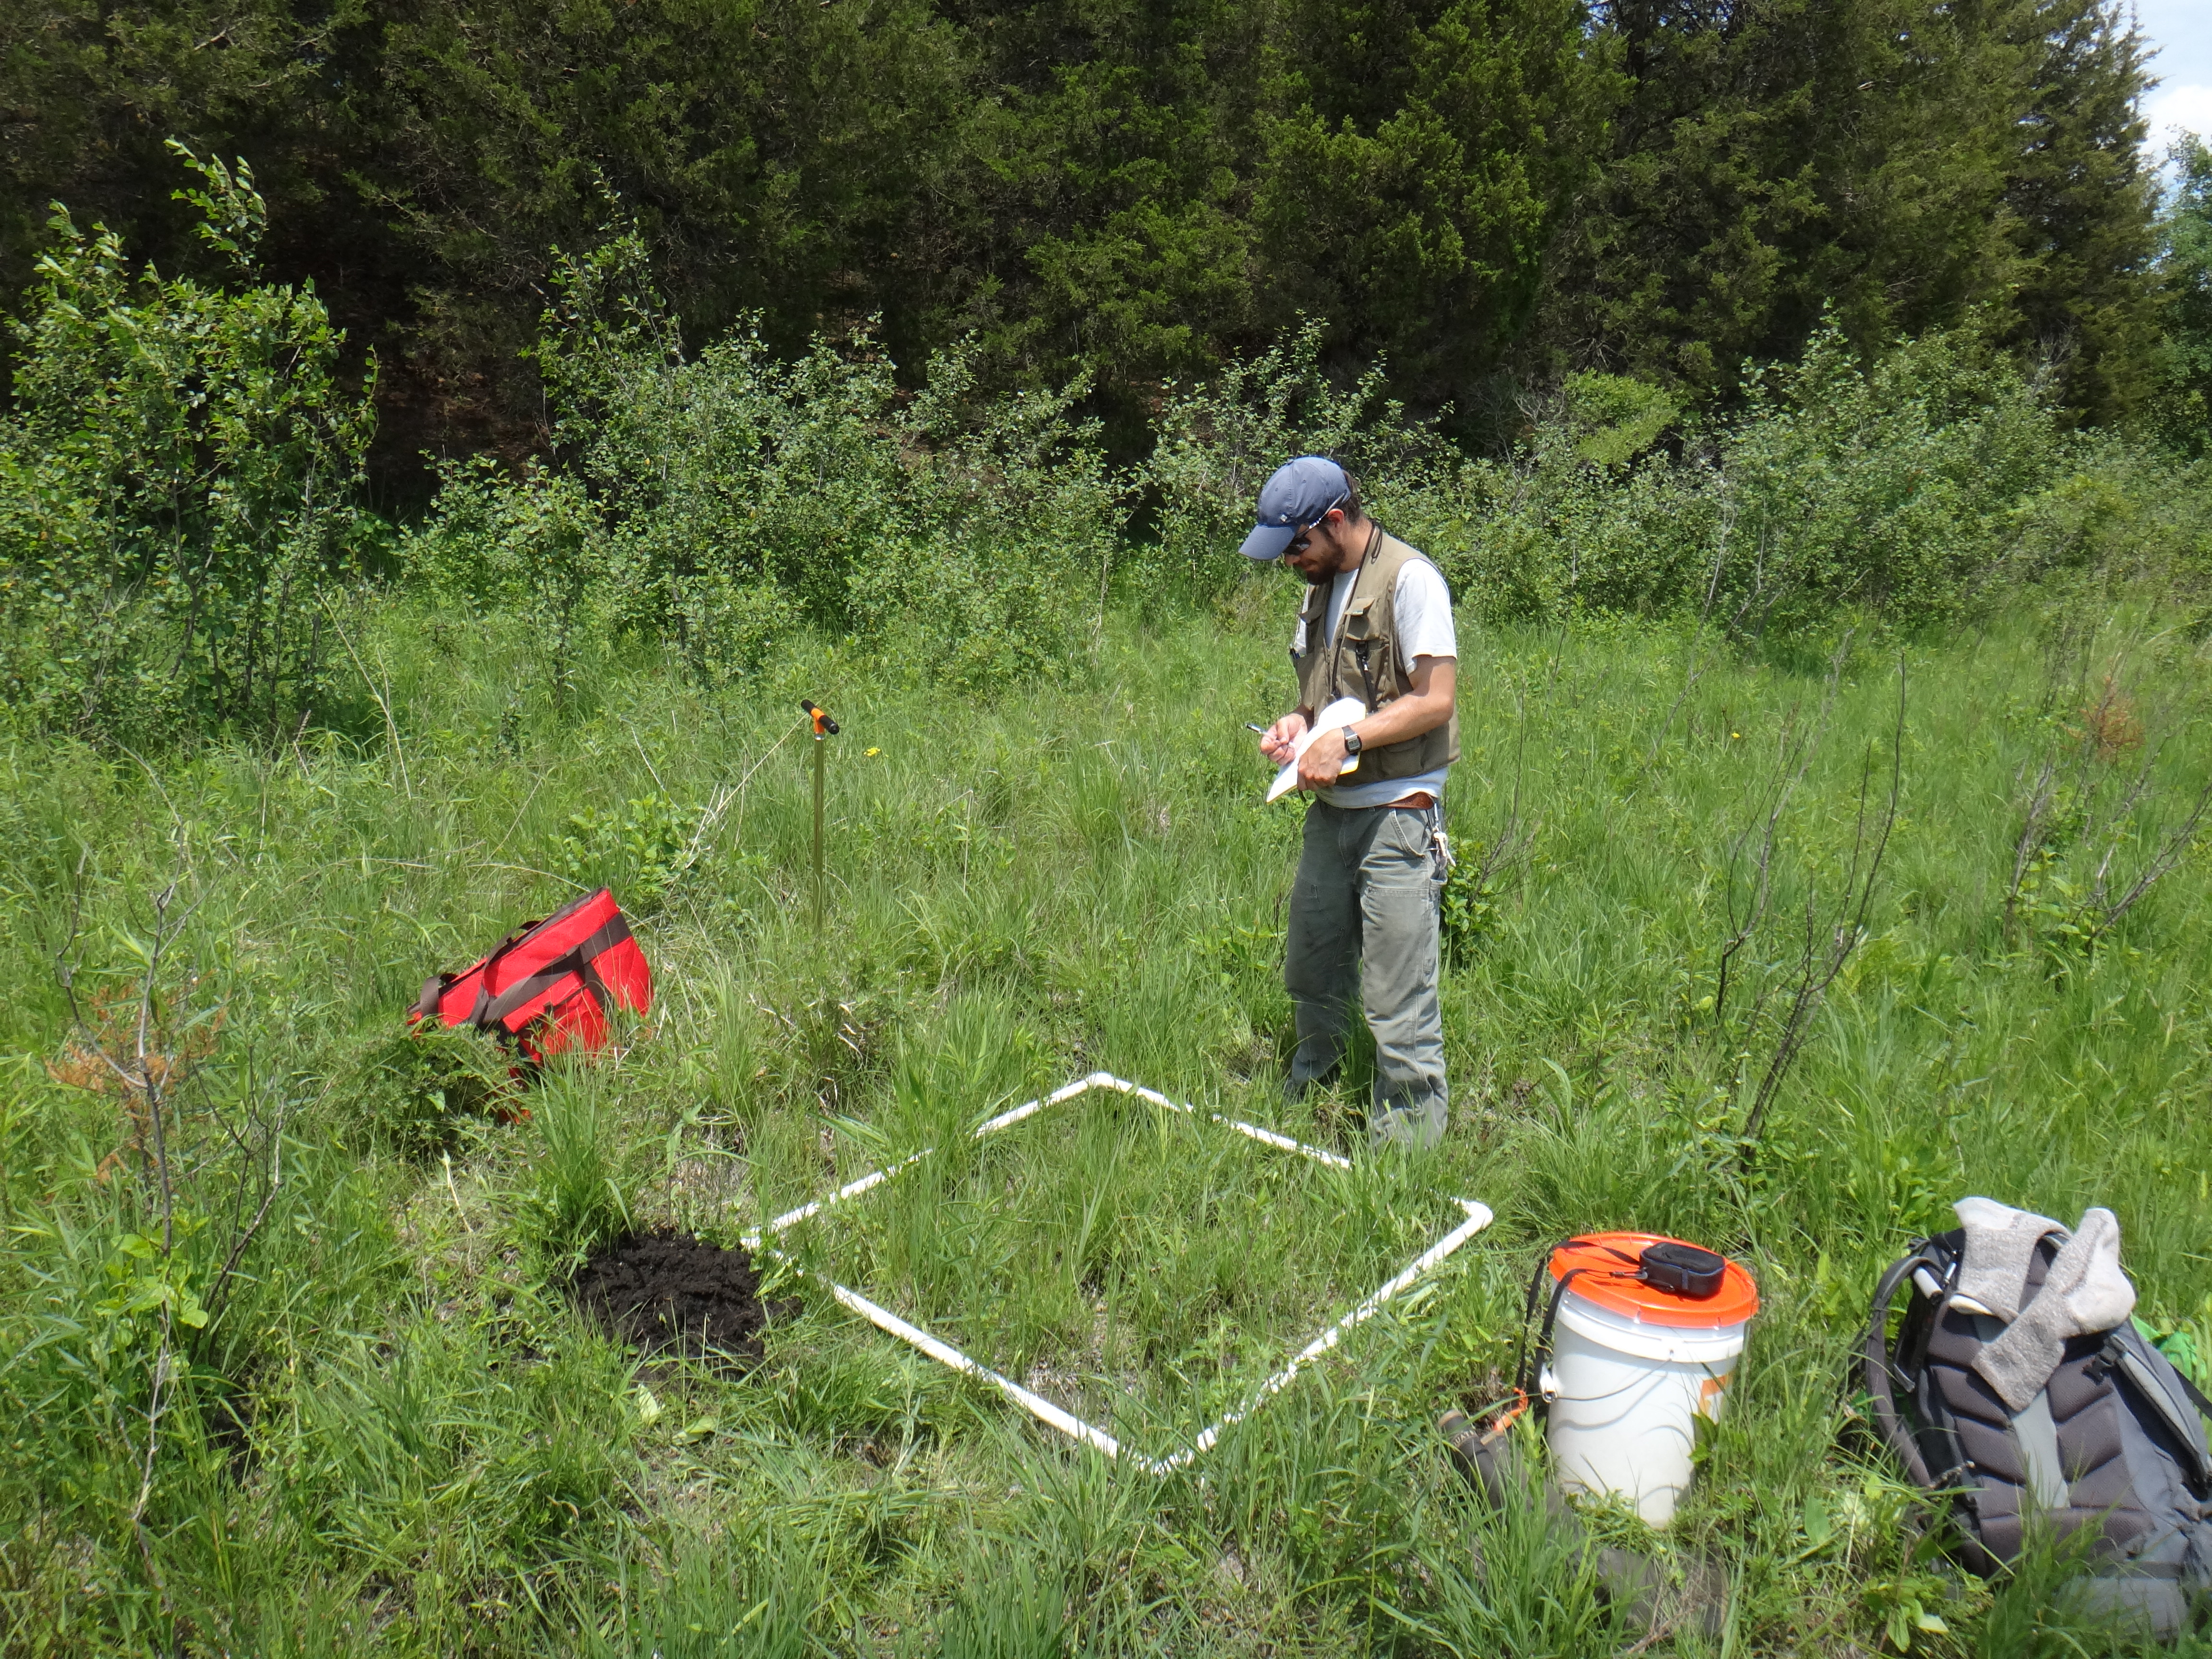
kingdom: Plantae
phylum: Tracheophyta
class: Liliopsida
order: Poales
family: Cyperaceae
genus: Carex
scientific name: Carex sterilis
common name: Dioecious sedge
